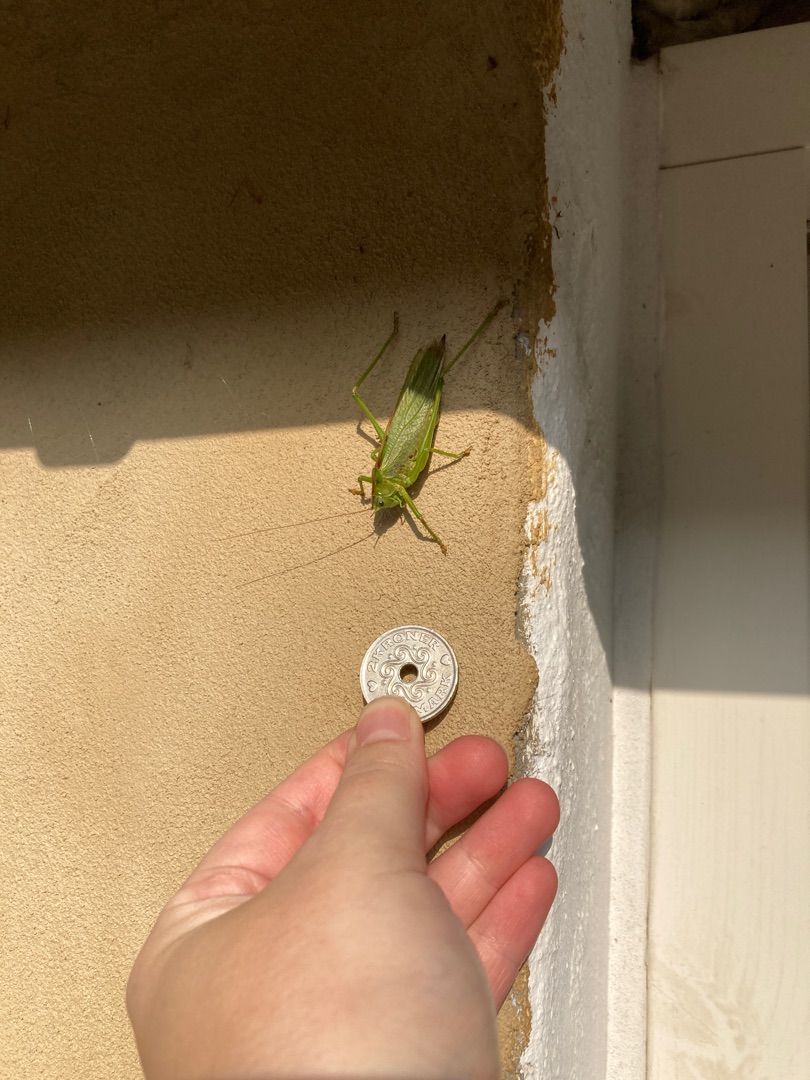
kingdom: Animalia
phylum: Arthropoda
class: Insecta
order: Orthoptera
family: Tettigoniidae
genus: Tettigonia
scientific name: Tettigonia viridissima
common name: Stor grøn løvgræshoppe
